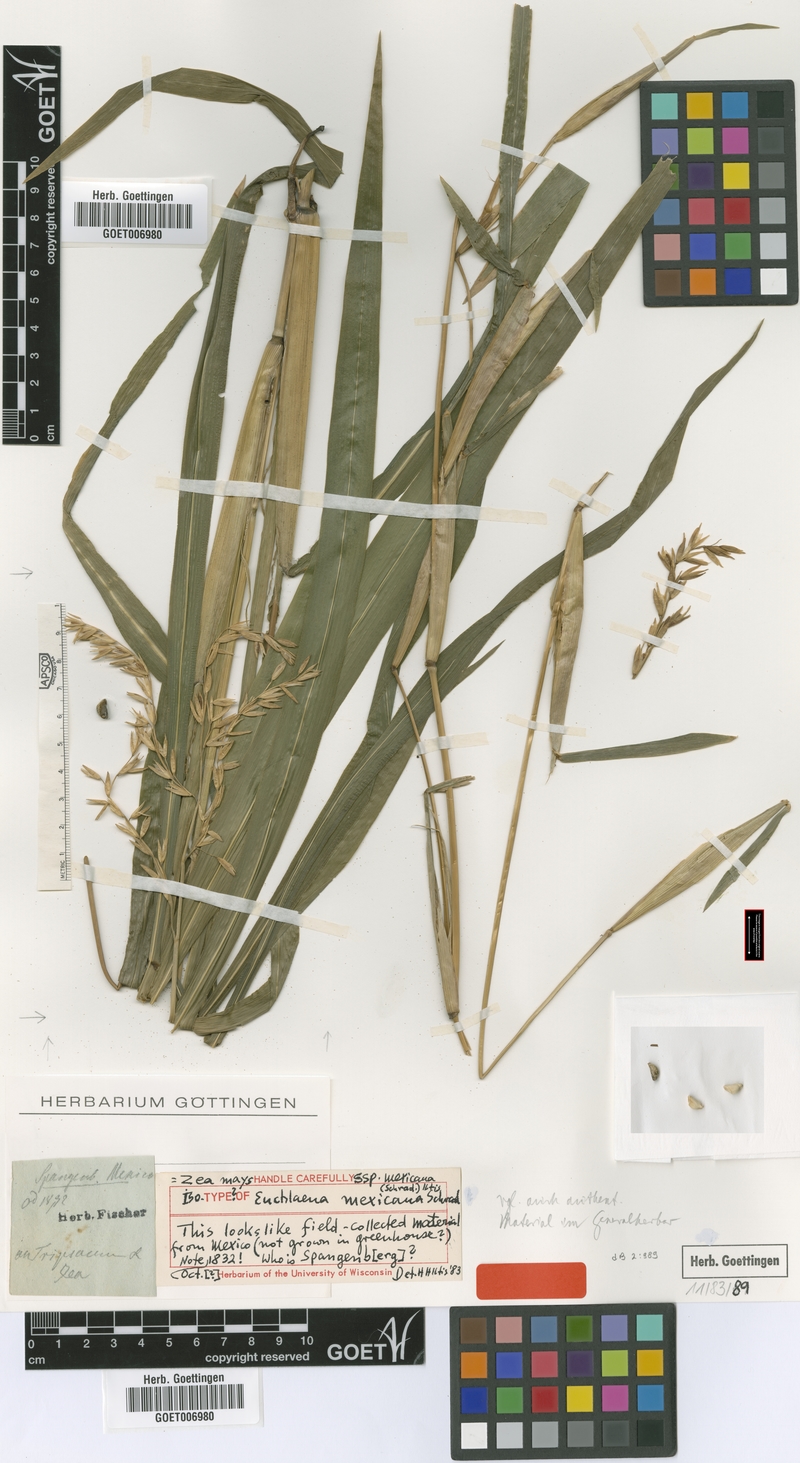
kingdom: Plantae
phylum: Tracheophyta
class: Liliopsida
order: Poales
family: Poaceae
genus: Zea
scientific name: Zea mexicana
